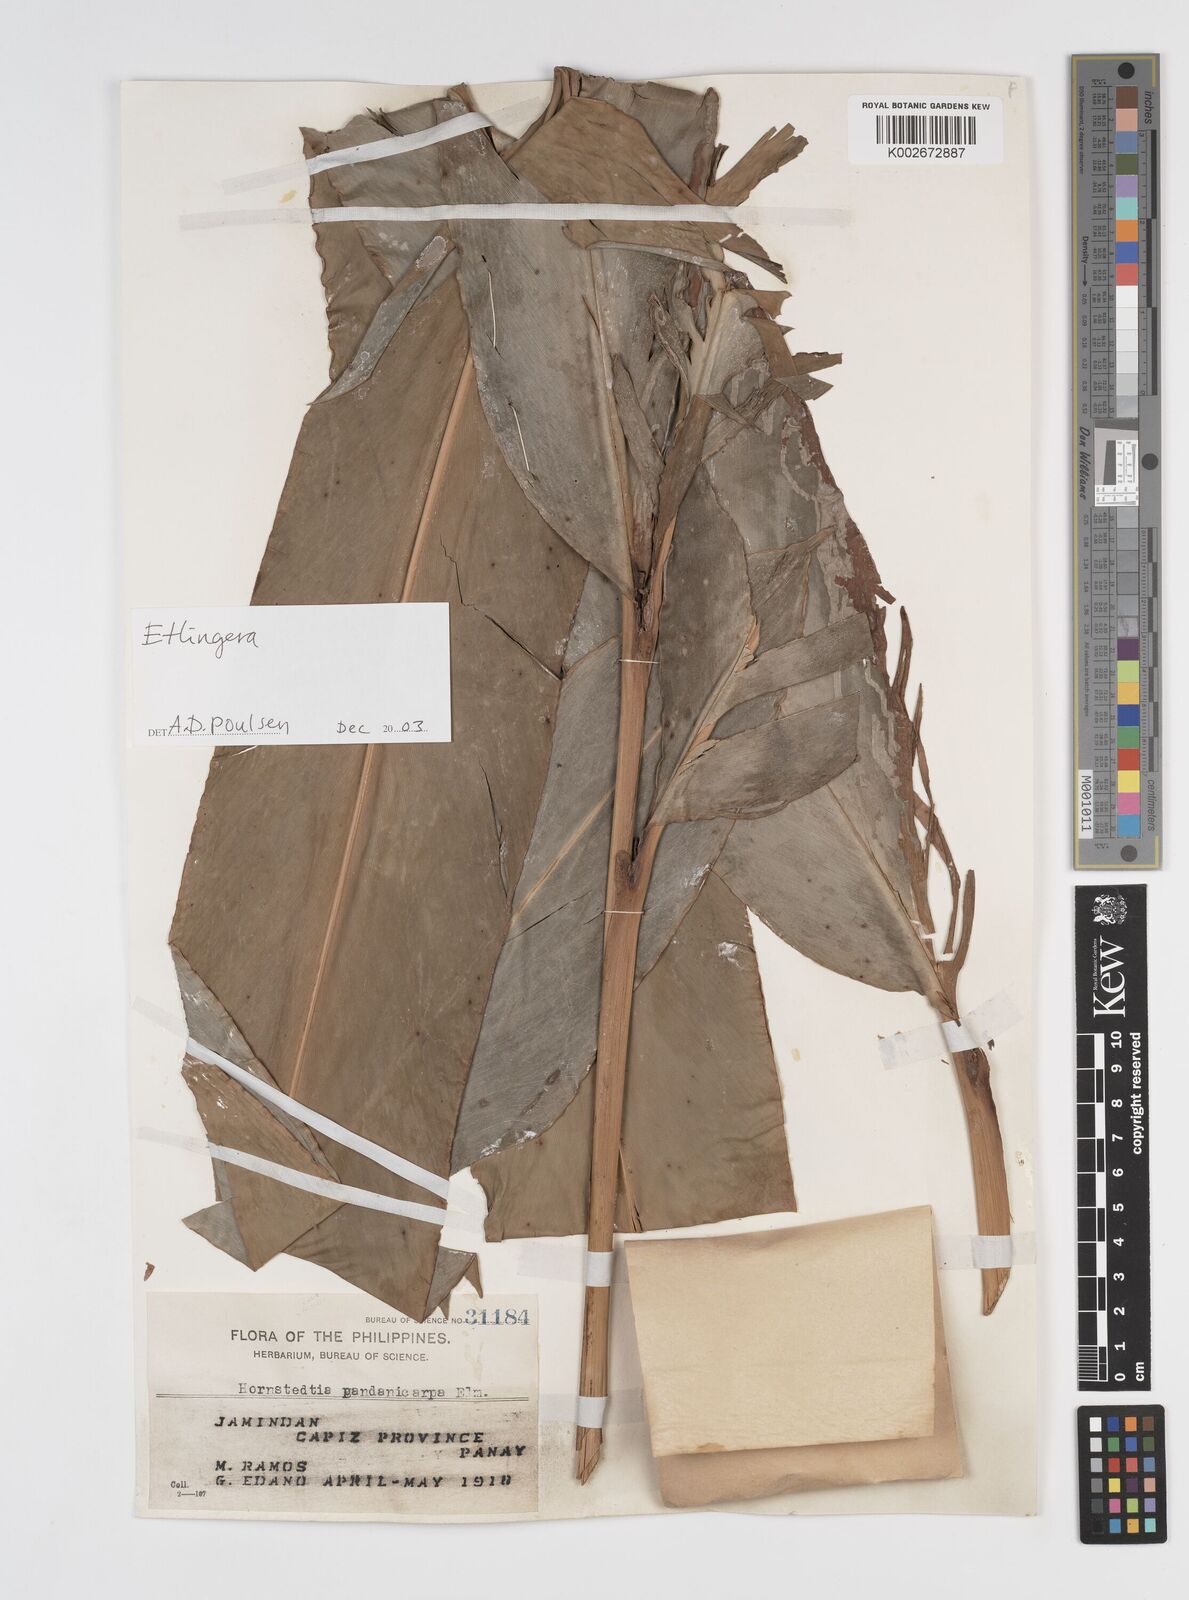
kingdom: Plantae
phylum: Tracheophyta
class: Liliopsida
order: Zingiberales
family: Zingiberaceae
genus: Etlingera
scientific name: Etlingera
